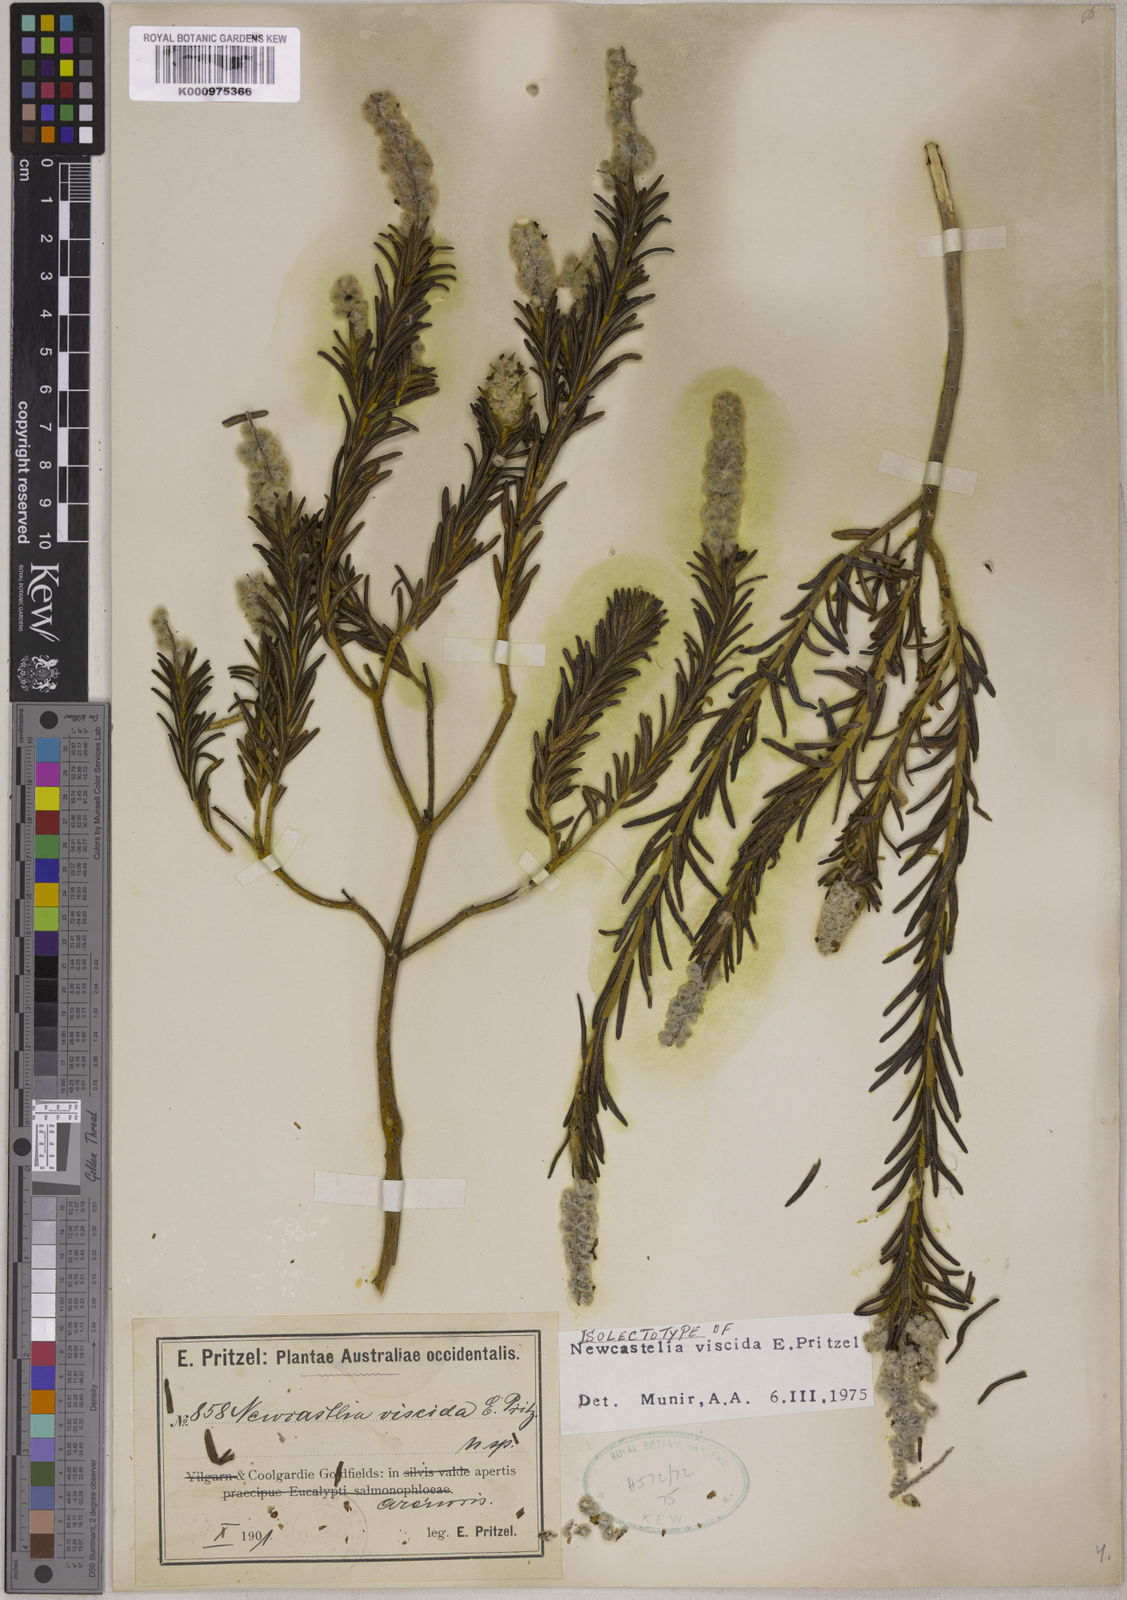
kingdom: Plantae
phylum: Tracheophyta
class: Magnoliopsida
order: Lamiales
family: Lamiaceae
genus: Apatelantha
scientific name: Apatelantha viscida
